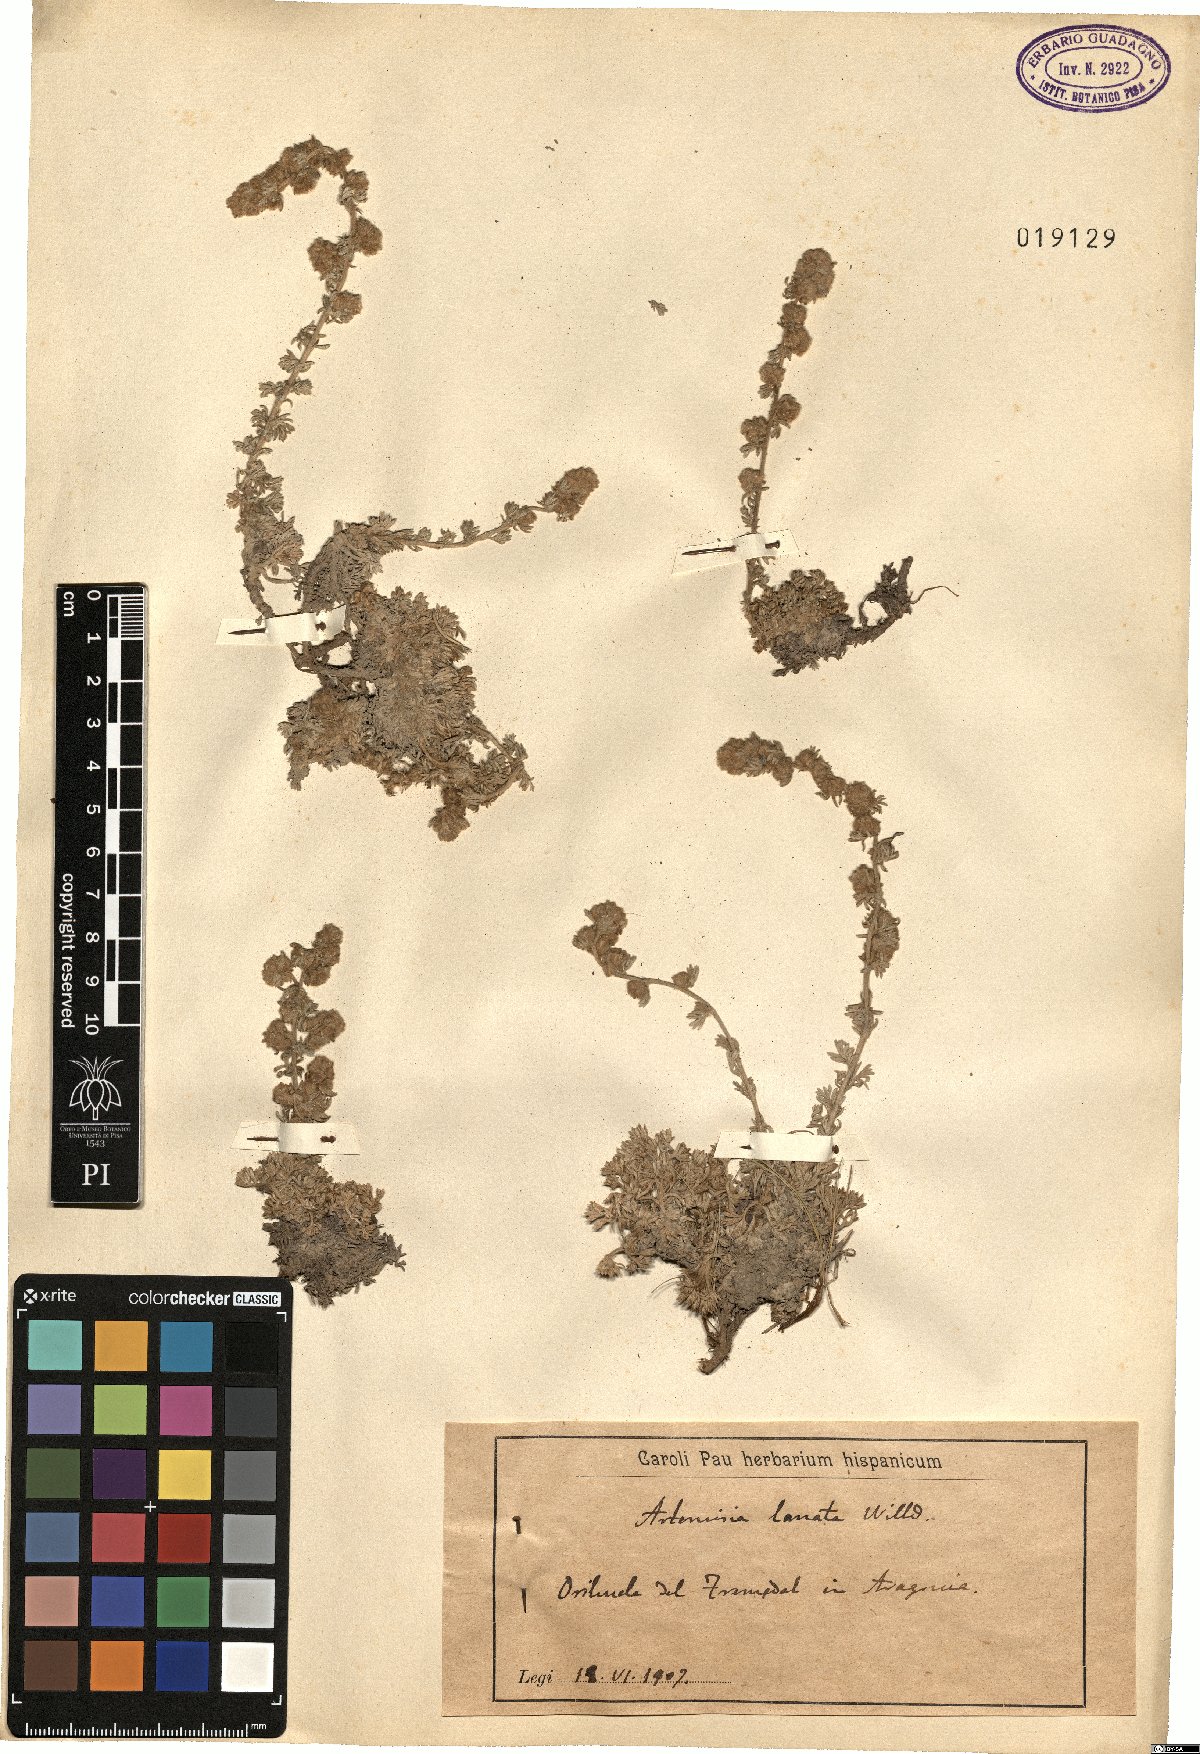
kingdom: Plantae
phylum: Tracheophyta
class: Magnoliopsida
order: Asterales
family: Asteraceae
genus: Artemisia
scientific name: Artemisia pedemontana
